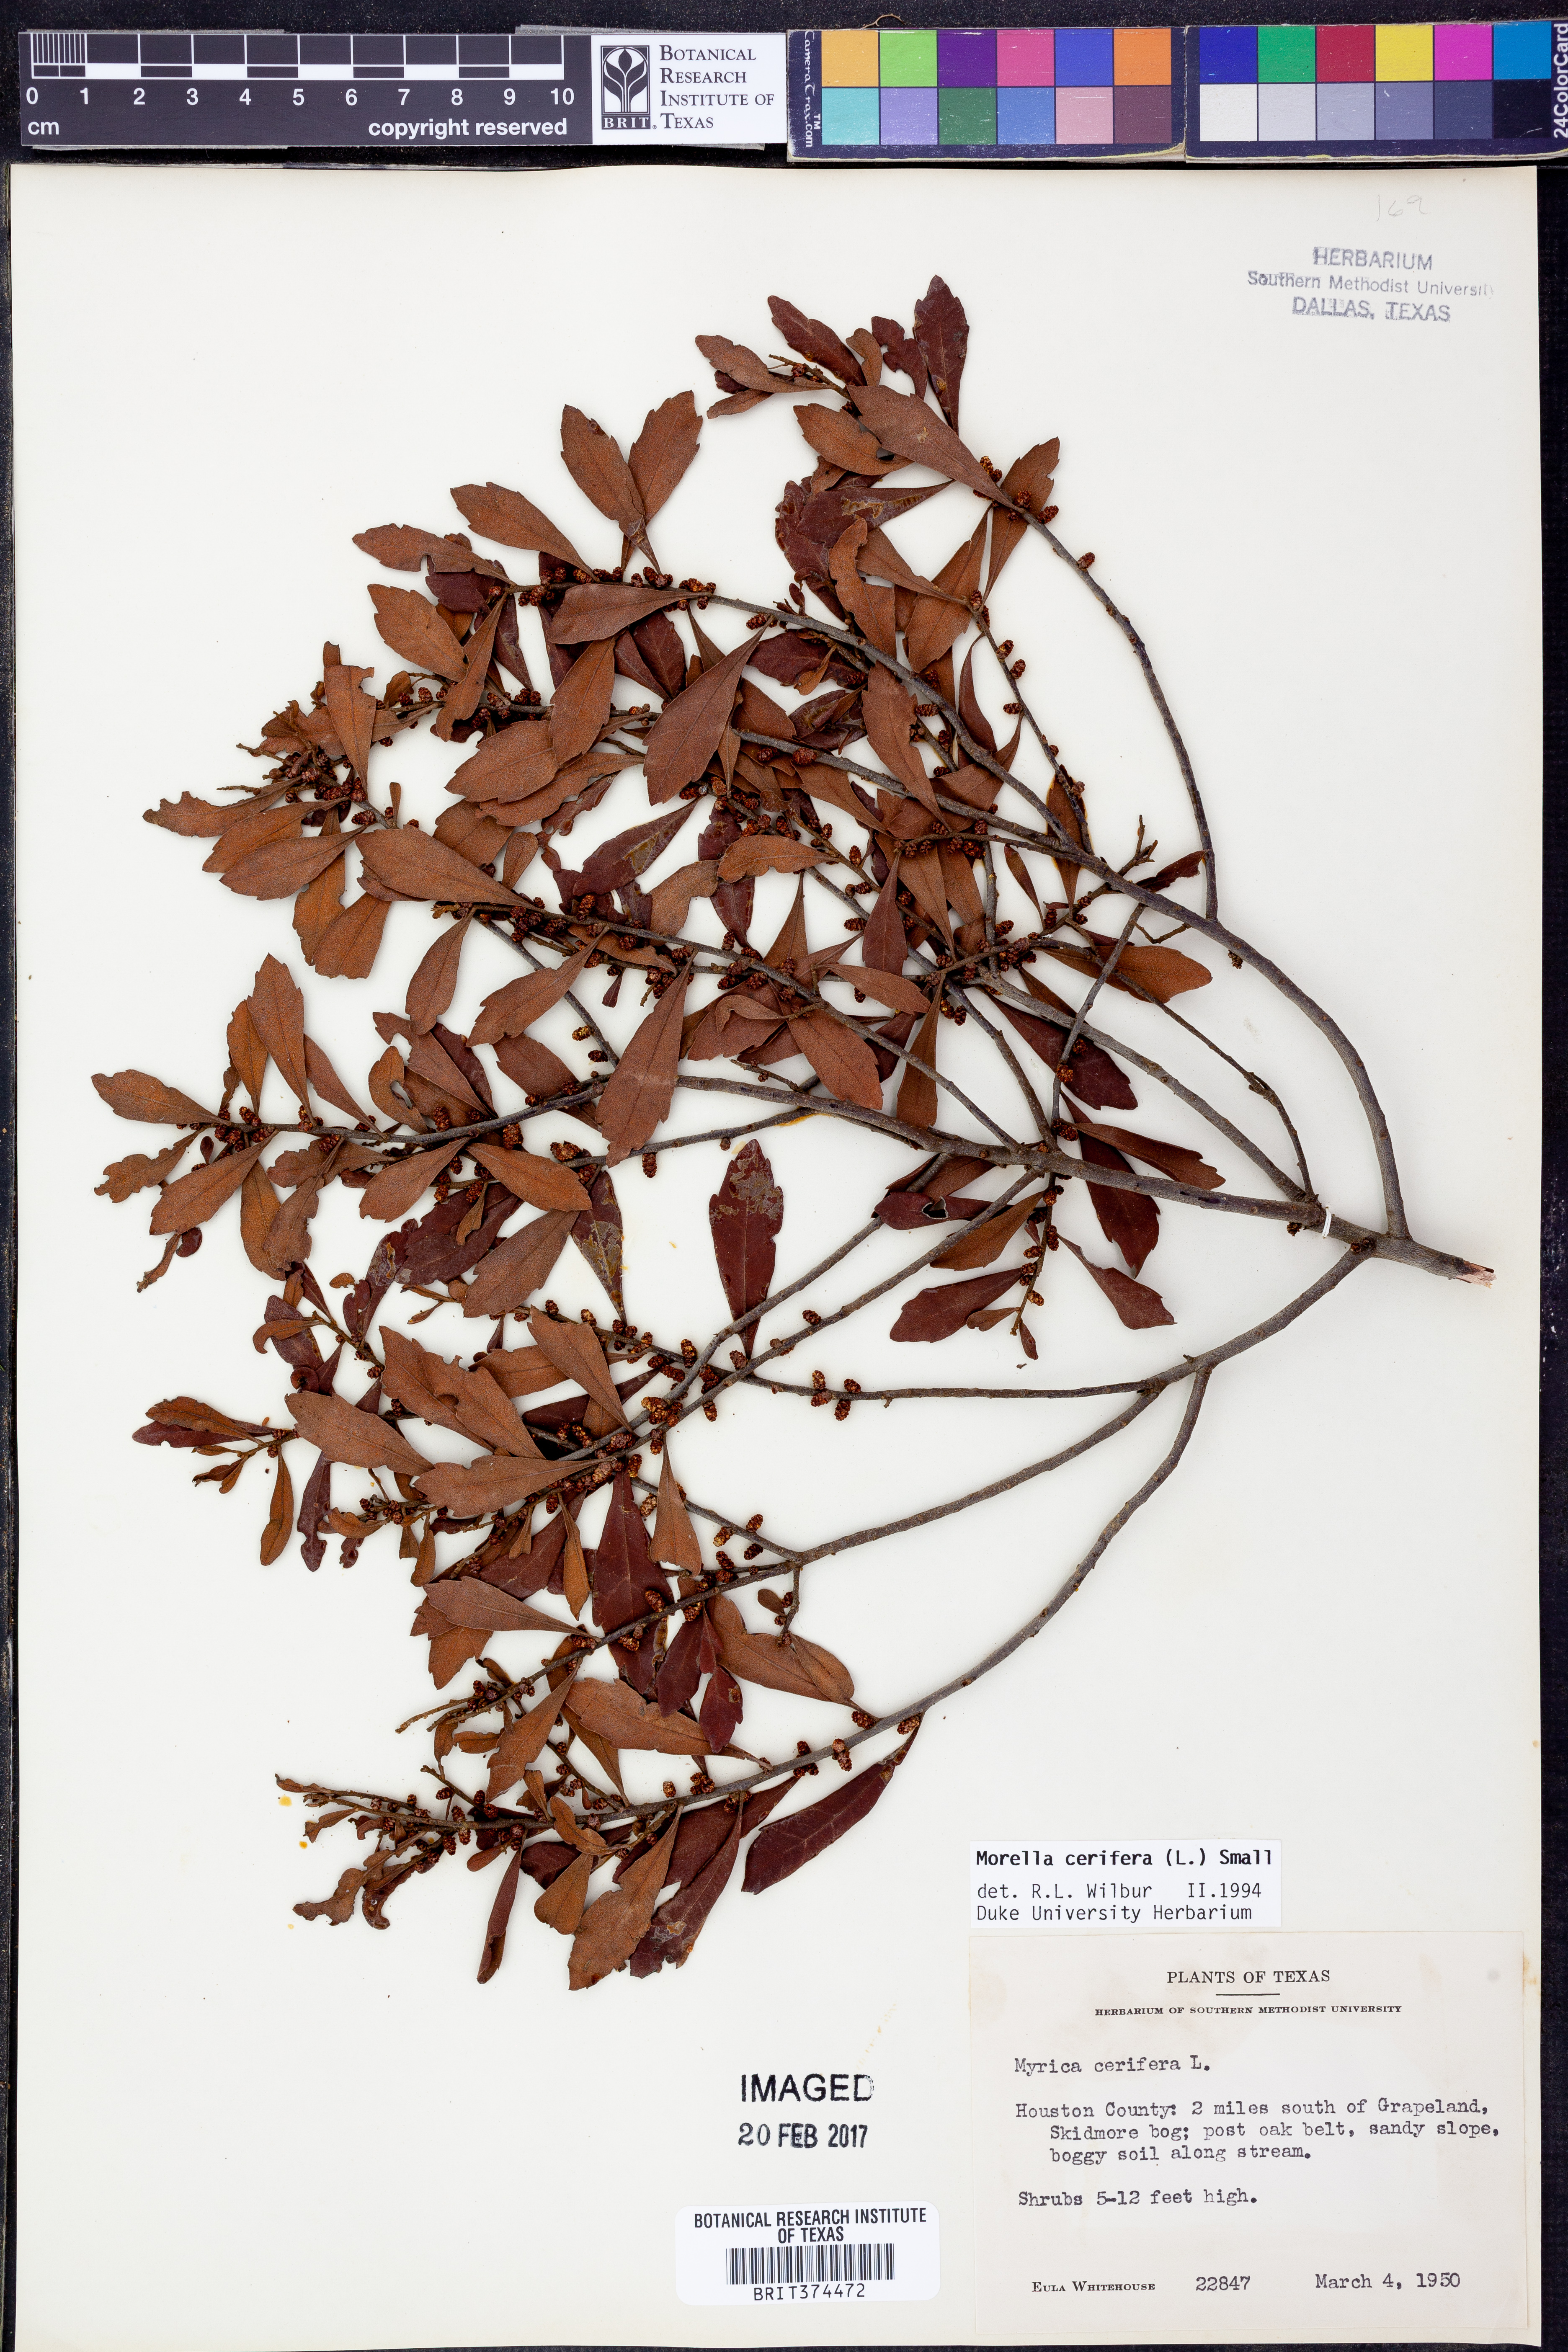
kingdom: Plantae
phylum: Tracheophyta
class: Magnoliopsida
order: Fagales
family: Myricaceae
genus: Morella
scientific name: Morella cerifera
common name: Wax myrtle
